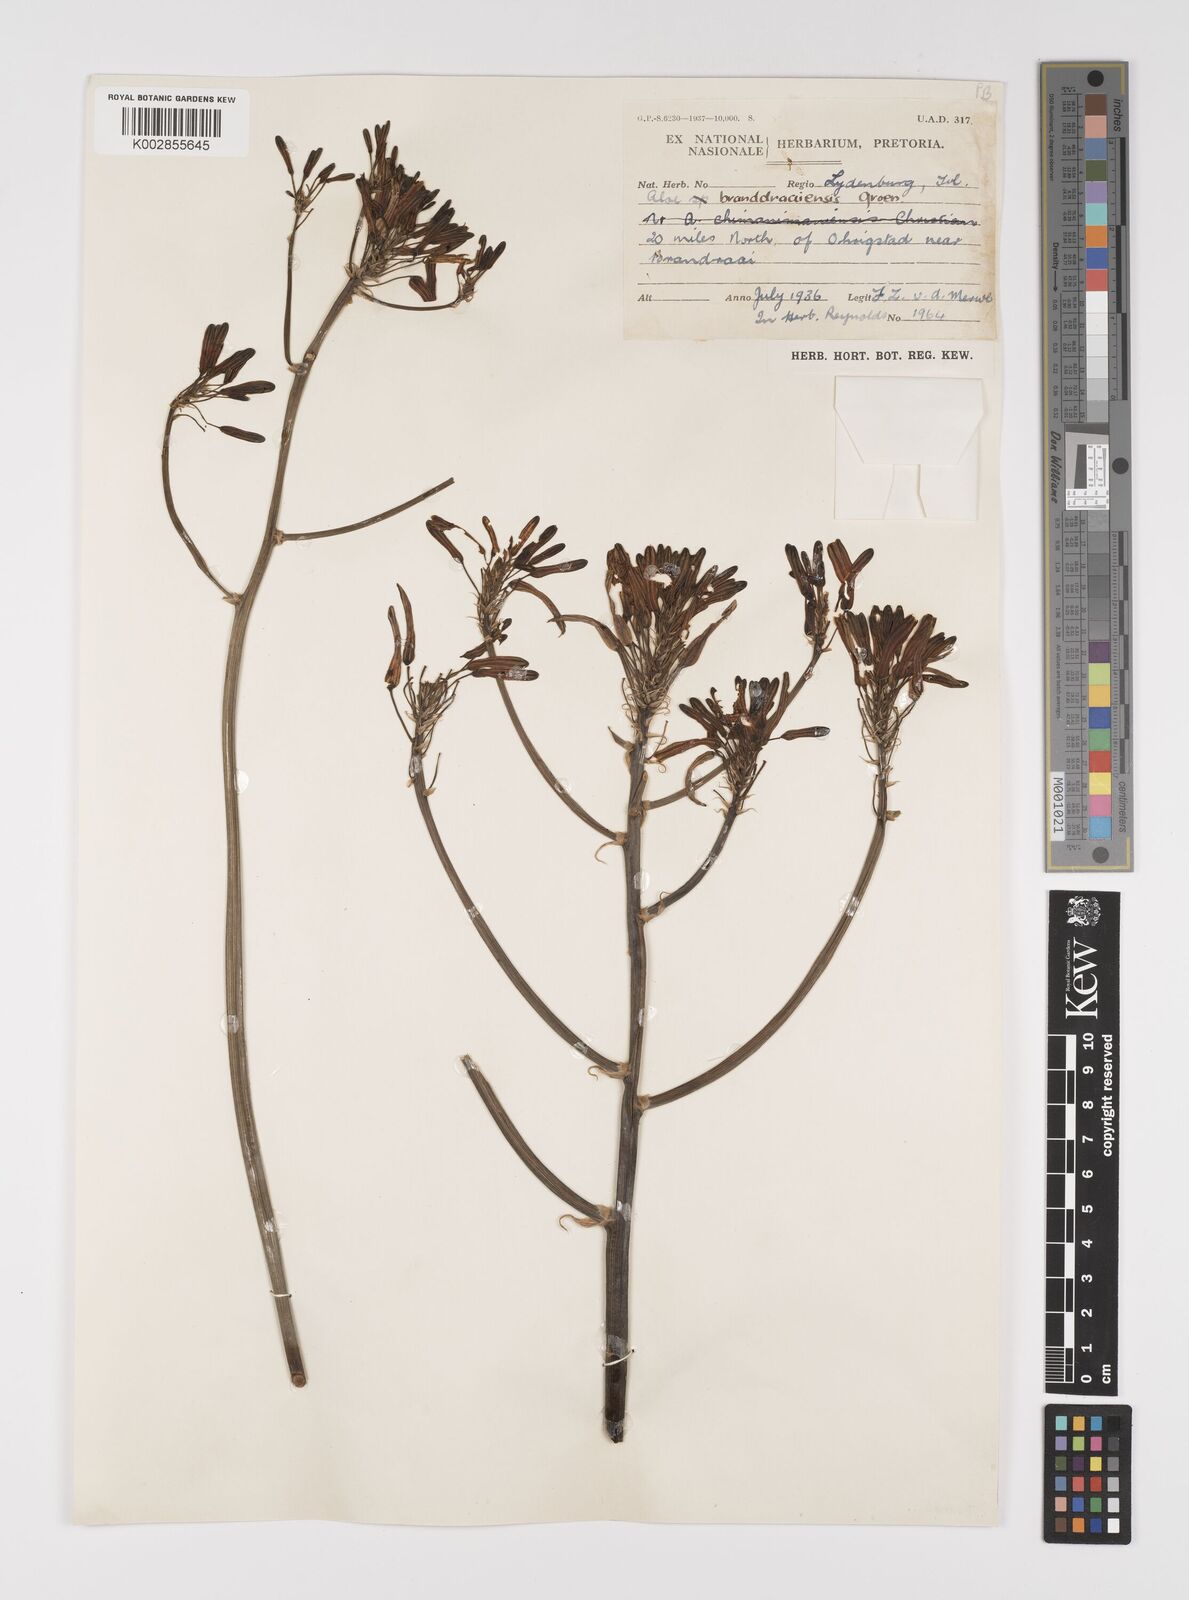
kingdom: Plantae
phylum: Tracheophyta
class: Liliopsida
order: Asparagales
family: Asphodelaceae
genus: Aloe
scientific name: Aloe branddraaiensis
